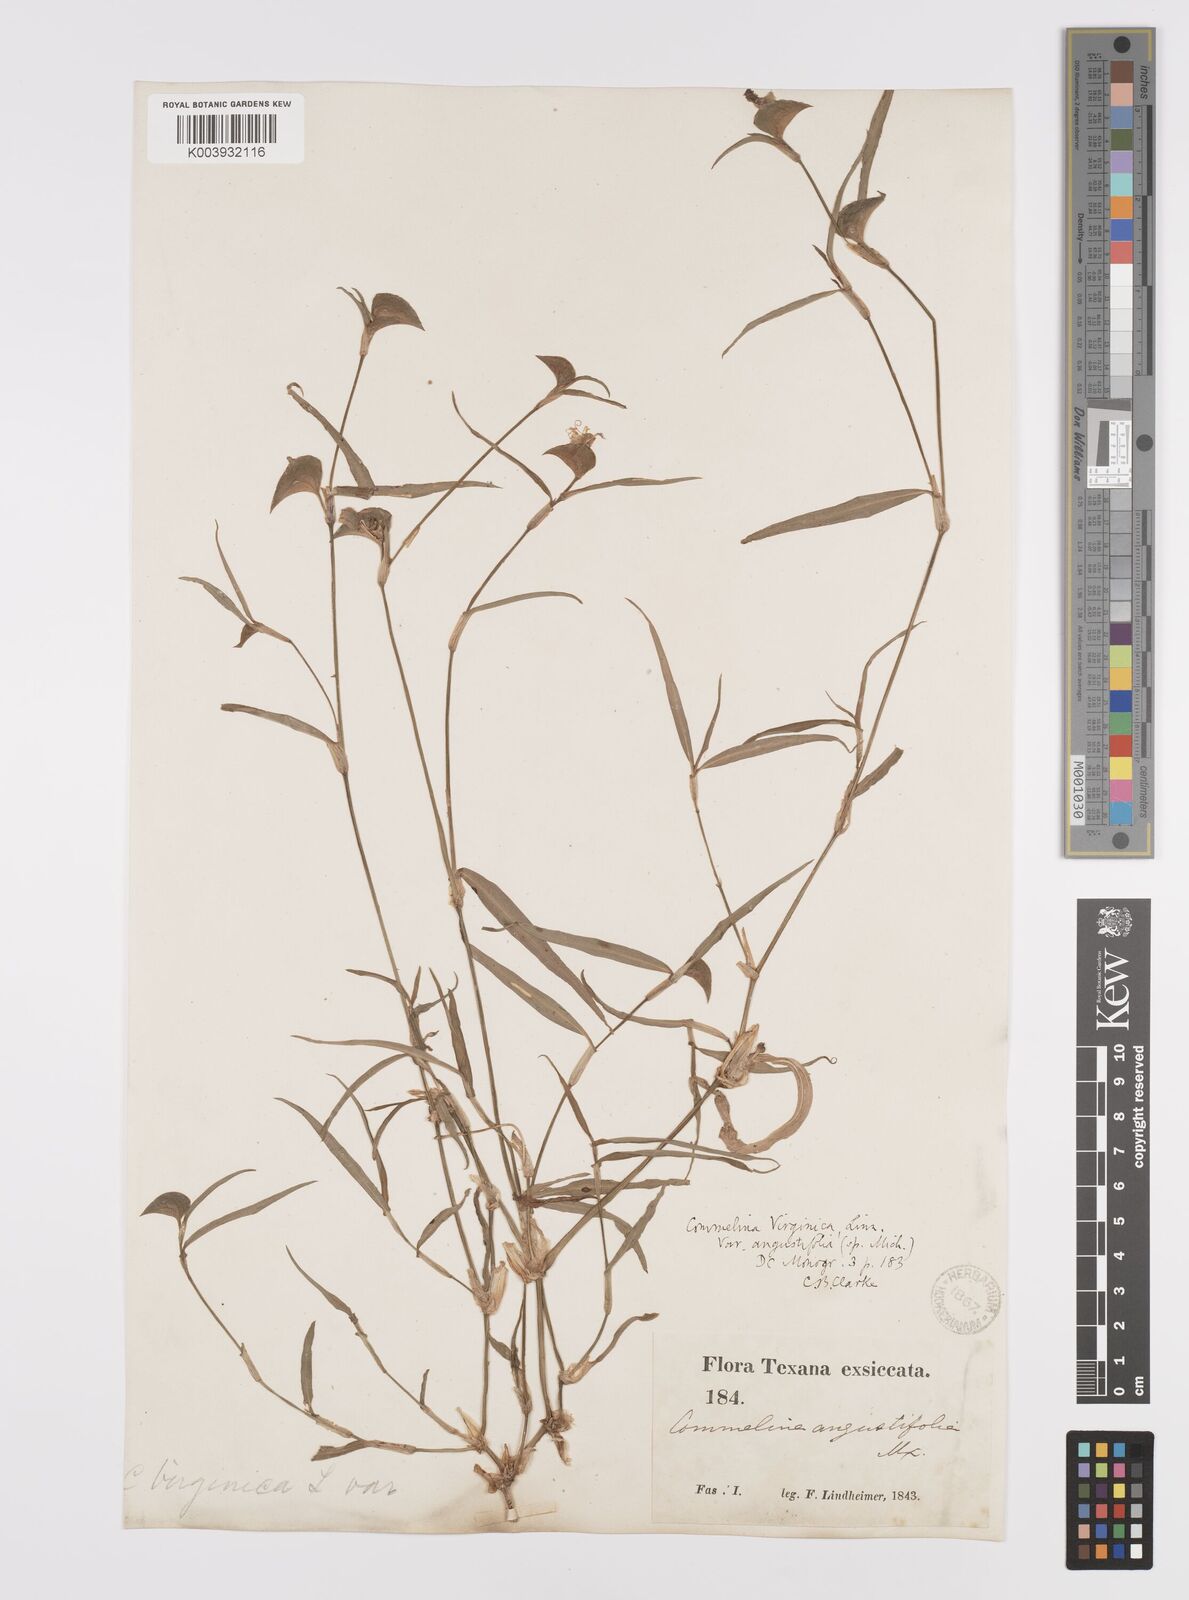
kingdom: Plantae
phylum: Tracheophyta
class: Liliopsida
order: Commelinales
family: Commelinaceae
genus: Commelina
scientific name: Commelina erecta
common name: Blousel blommetjie
